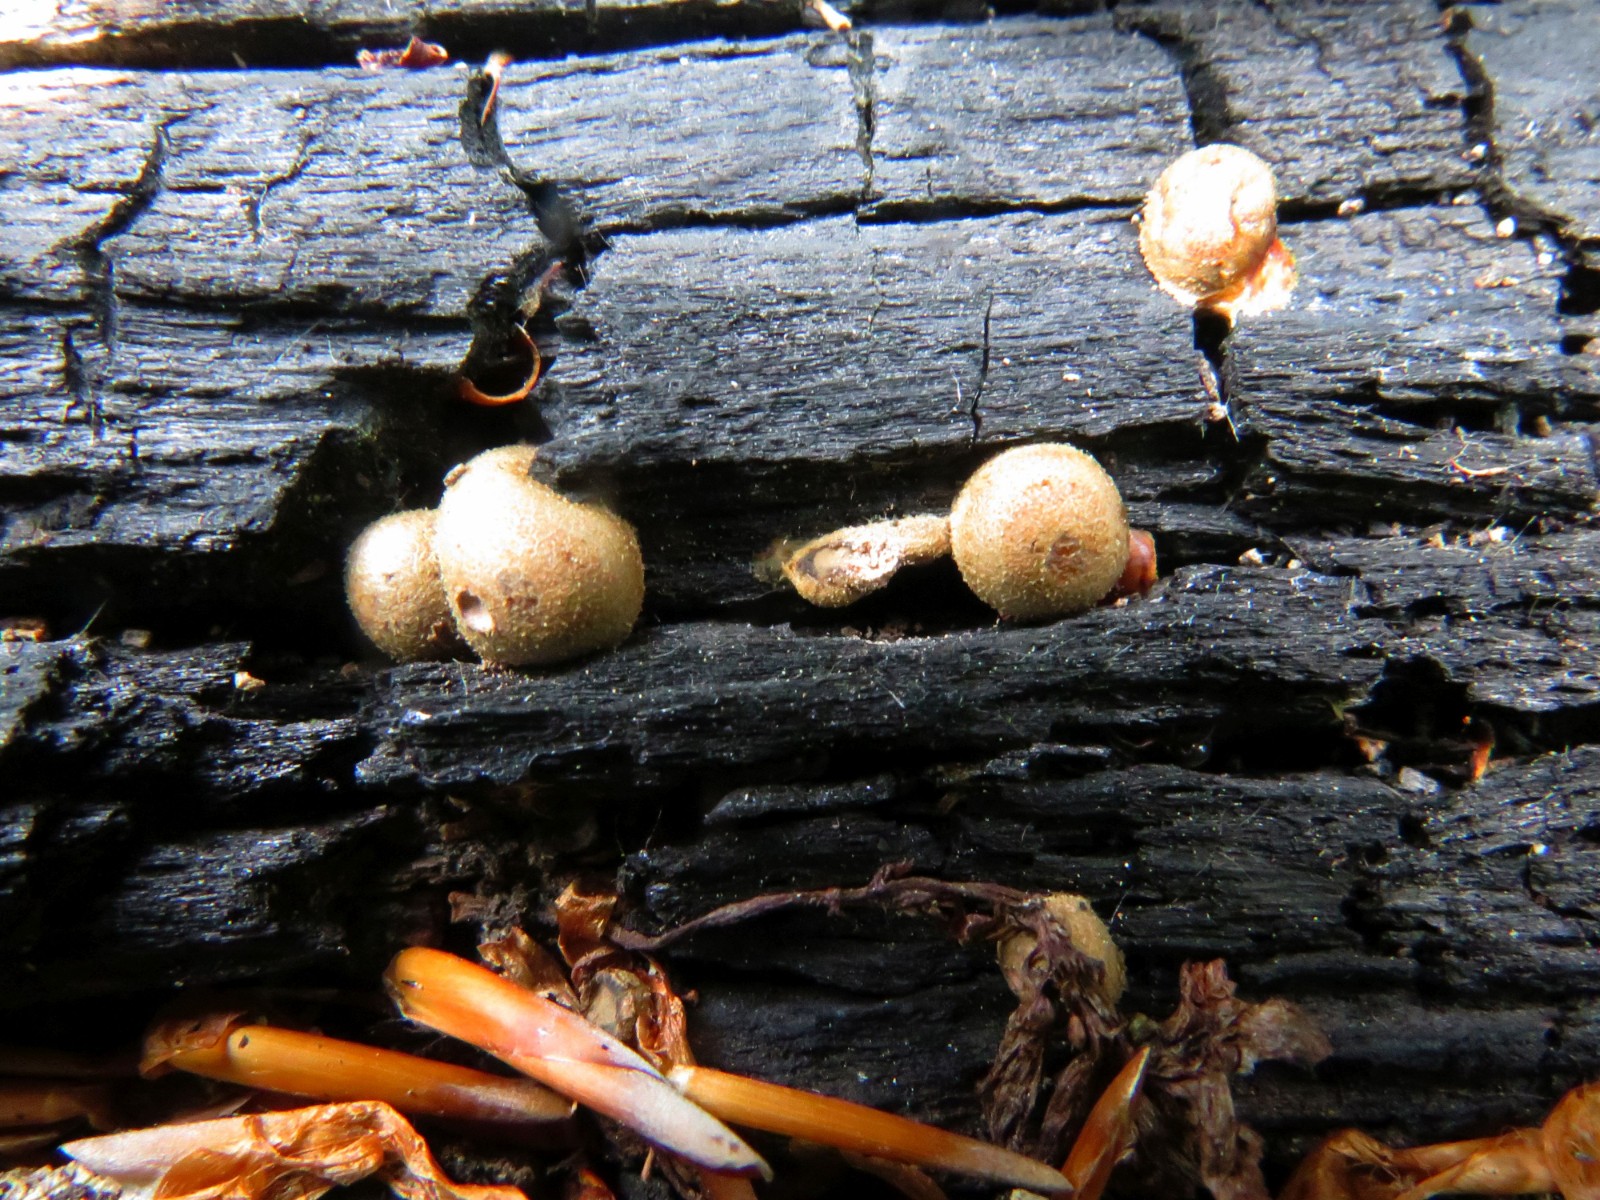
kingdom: Protozoa
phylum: Mycetozoa
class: Myxomycetes
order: Cribrariales
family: Tubiferaceae
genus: Lycogala
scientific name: Lycogala epidendrum
